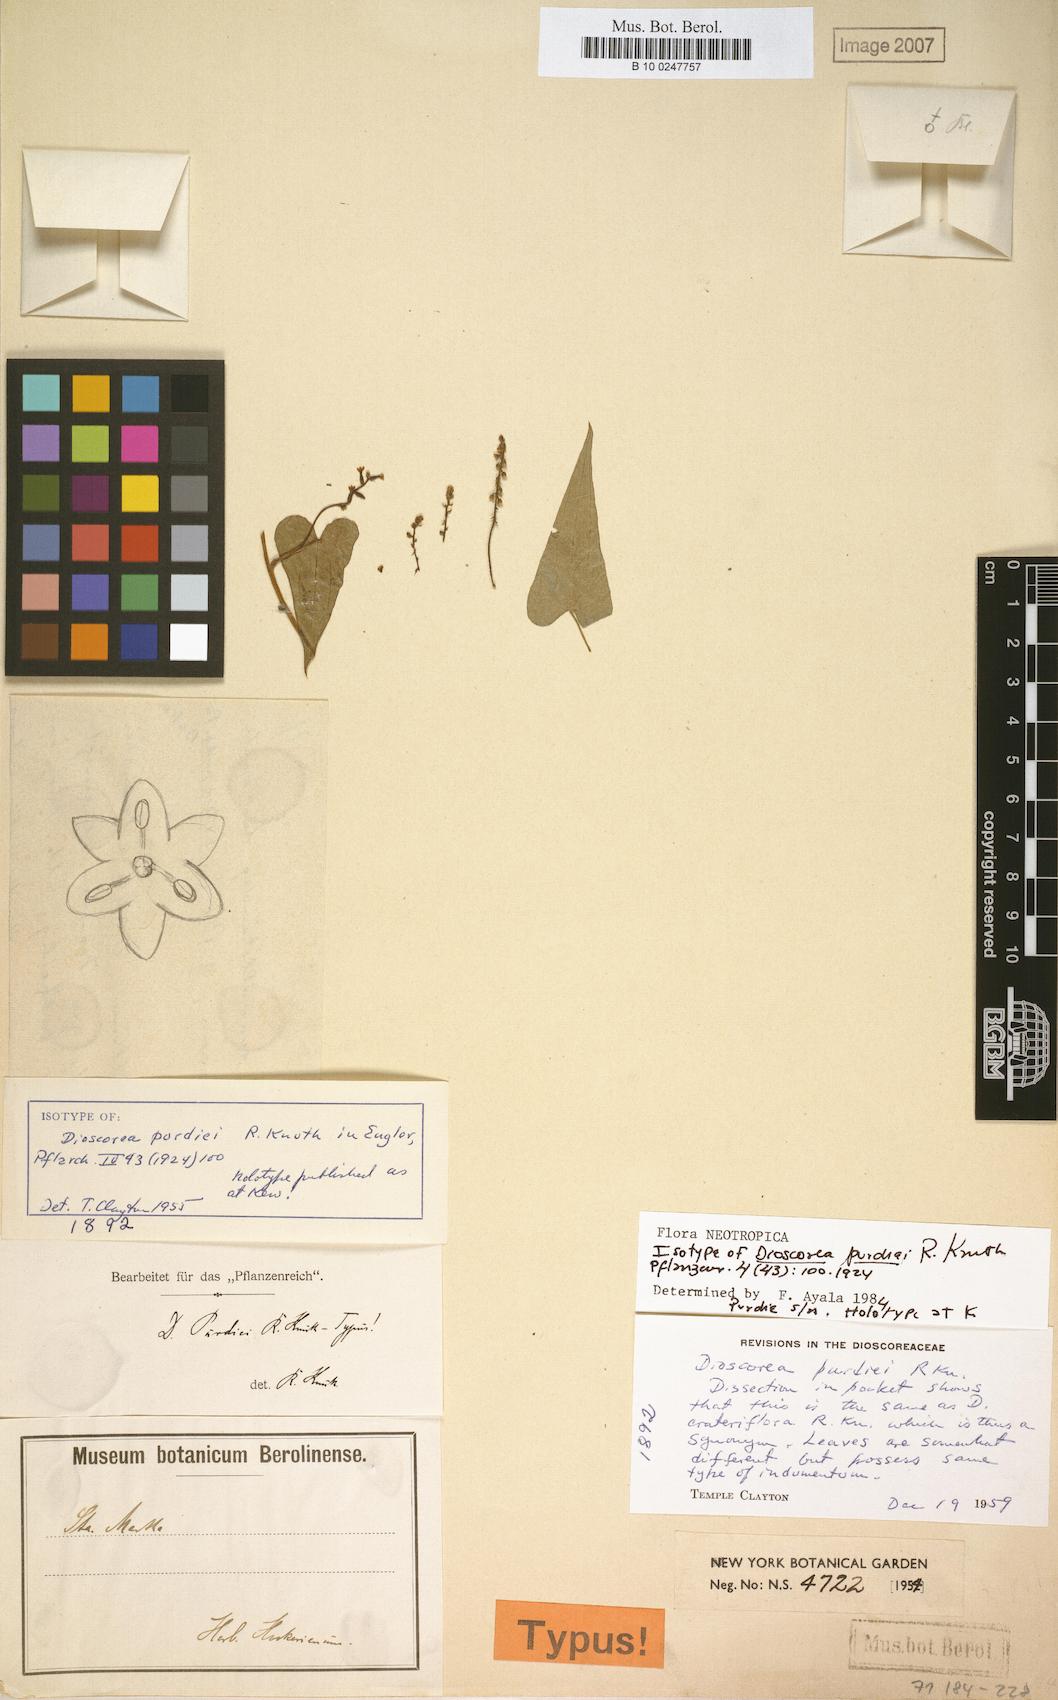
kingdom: Plantae
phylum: Tracheophyta
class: Liliopsida
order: Dioscoreales
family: Dioscoreaceae
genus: Dioscorea
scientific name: Dioscorea purdiei
